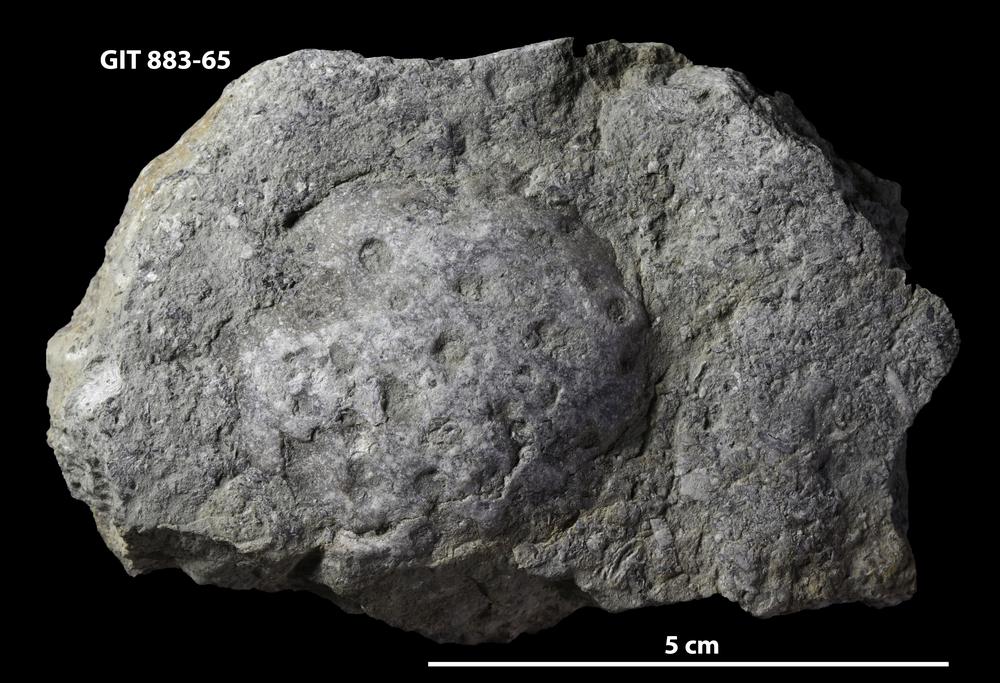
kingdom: Animalia
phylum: Porifera
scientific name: Porifera
